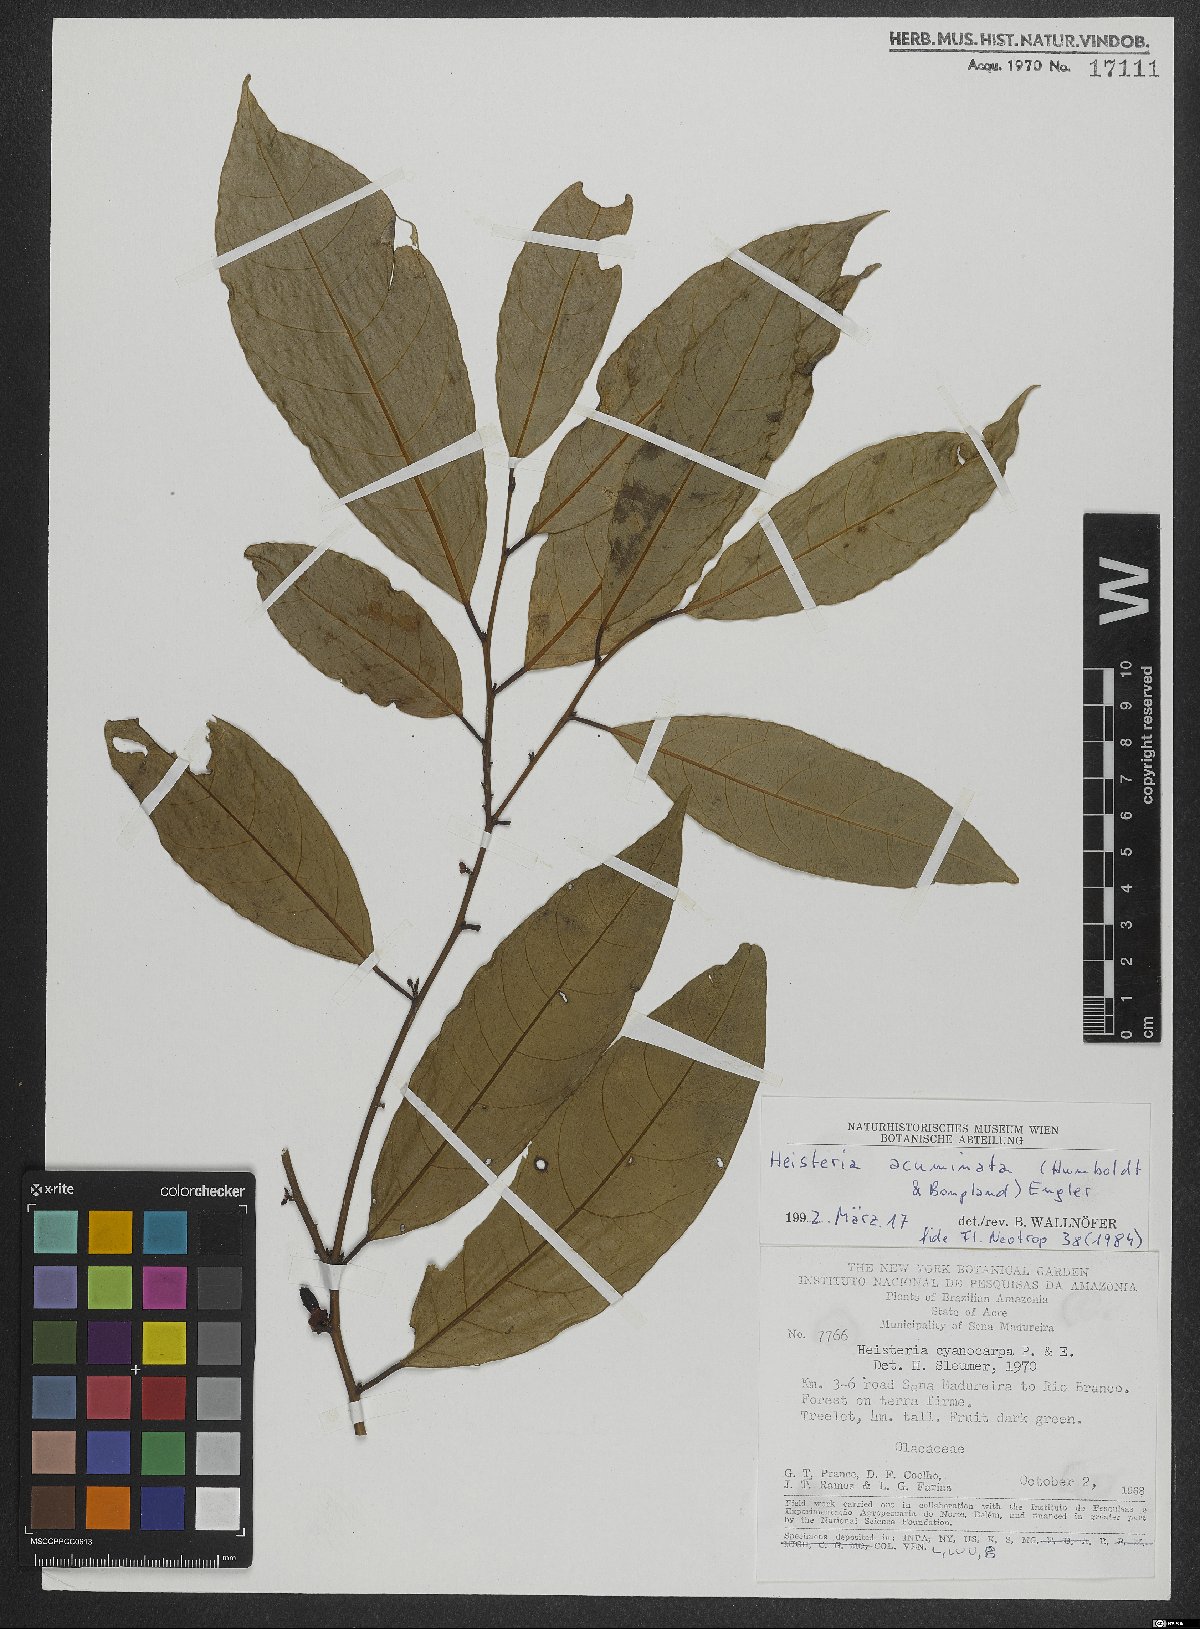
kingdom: Plantae
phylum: Tracheophyta
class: Magnoliopsida
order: Santalales
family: Erythropalaceae
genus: Heisteria
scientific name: Heisteria acuminata
